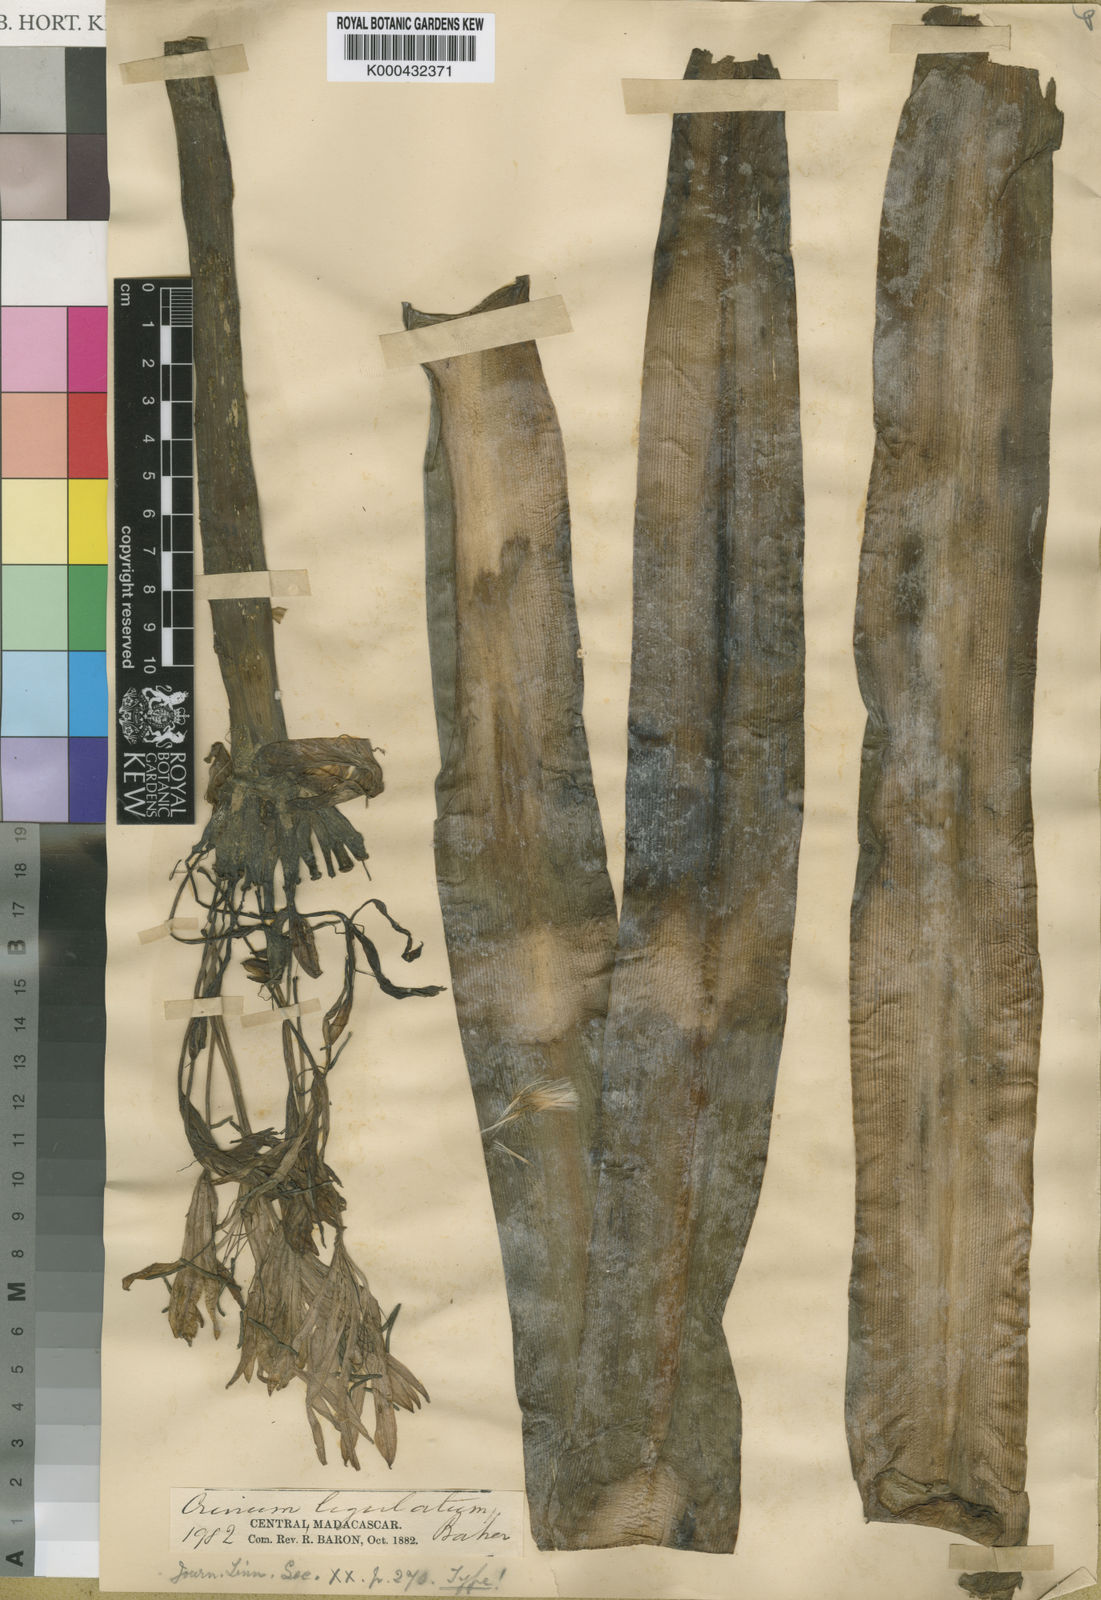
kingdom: Plantae
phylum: Tracheophyta
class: Liliopsida
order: Asparagales
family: Amaryllidaceae
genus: Crinum
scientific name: Crinum firmifolium
